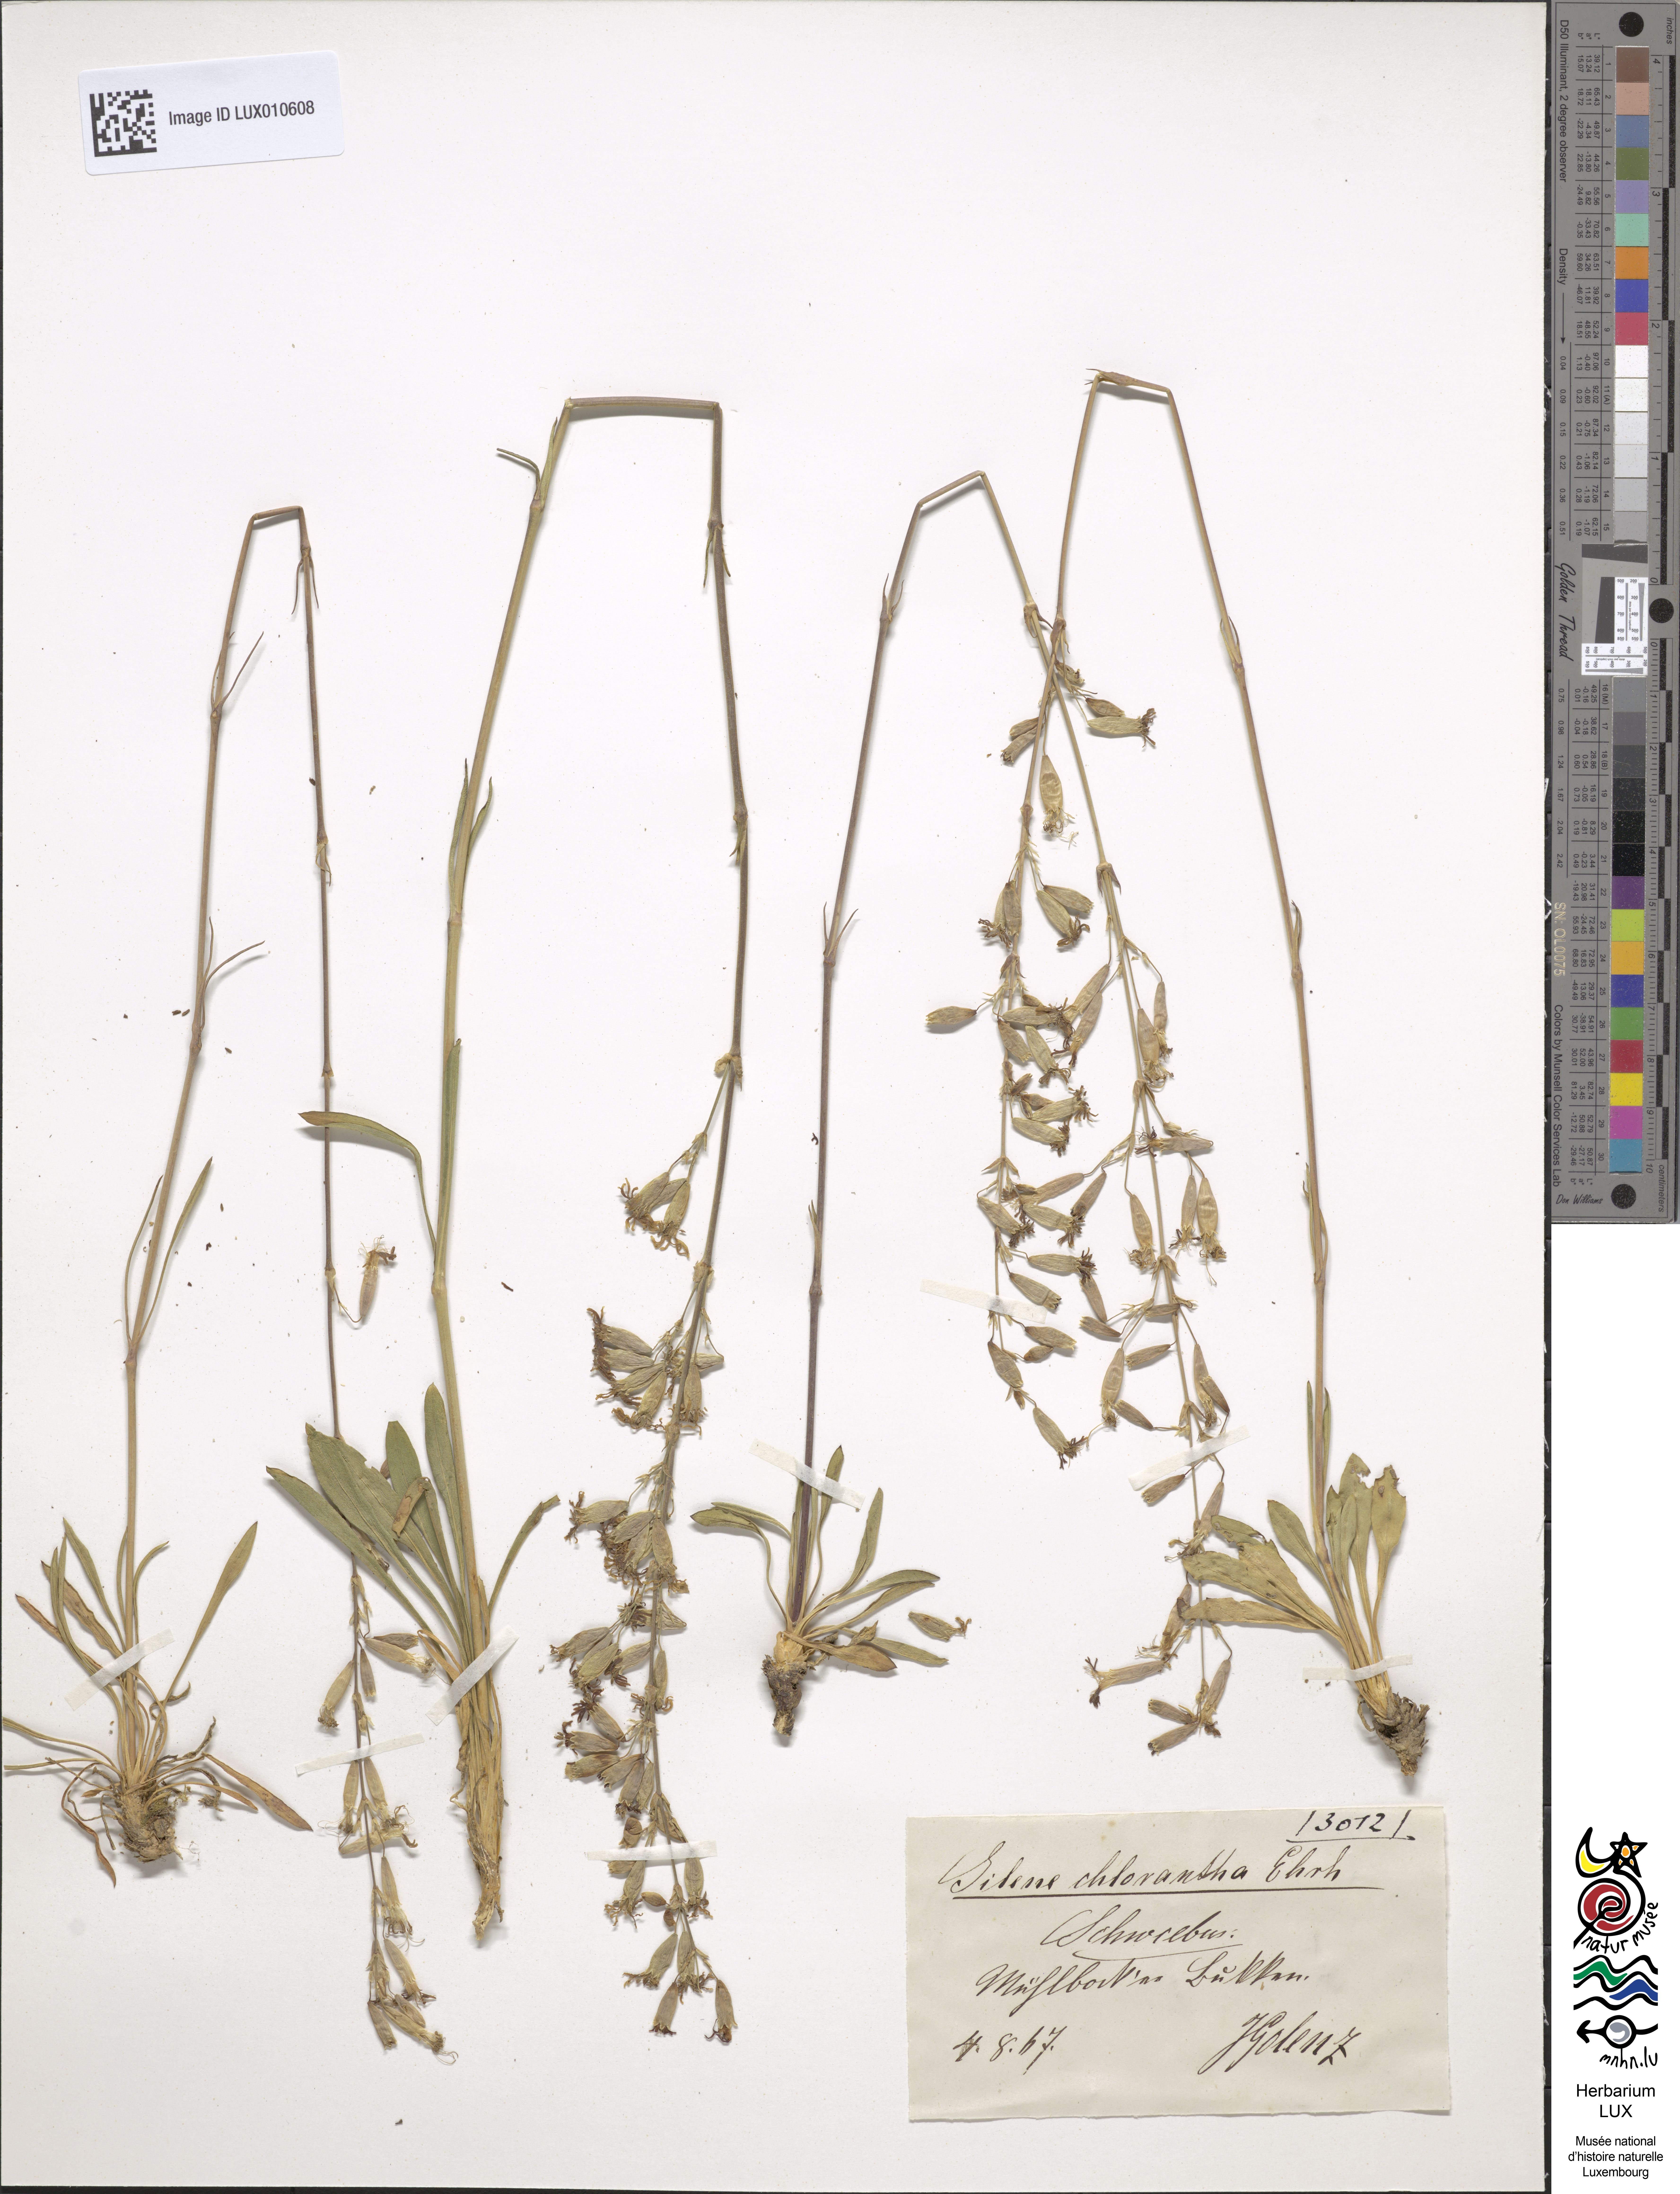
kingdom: Plantae
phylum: Tracheophyta
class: Magnoliopsida
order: Caryophyllales
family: Caryophyllaceae
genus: Silene
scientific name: Silene chlorantha
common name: Yellowgreen catchfly
